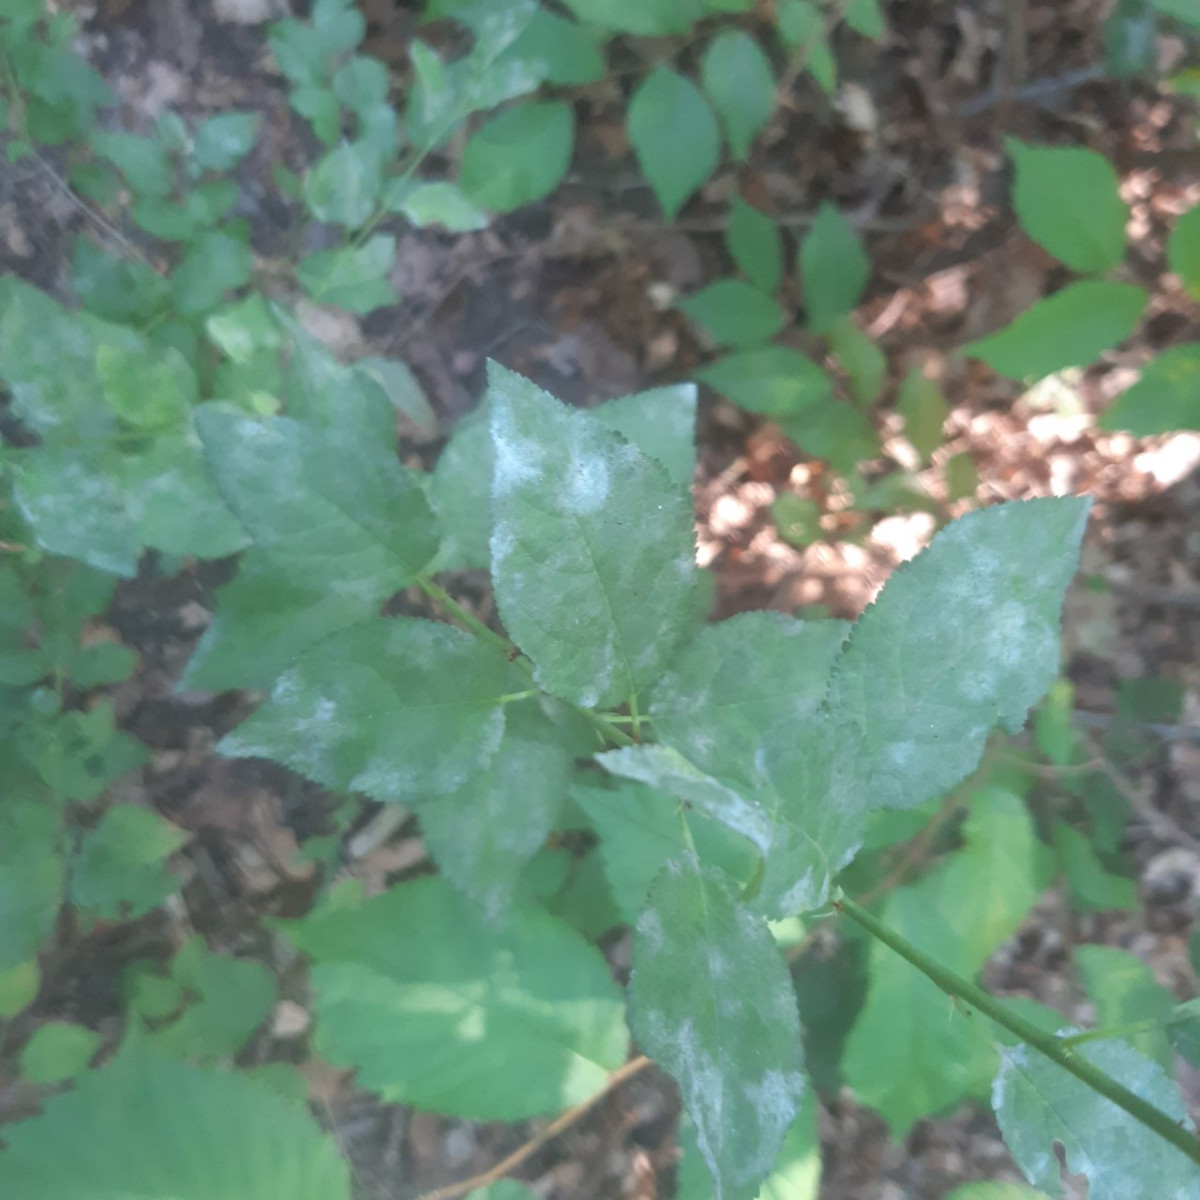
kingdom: Fungi
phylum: Ascomycota
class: Leotiomycetes
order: Helotiales
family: Erysiphaceae
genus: Podosphaera
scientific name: Podosphaera leucotricha
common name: æble-meldug
